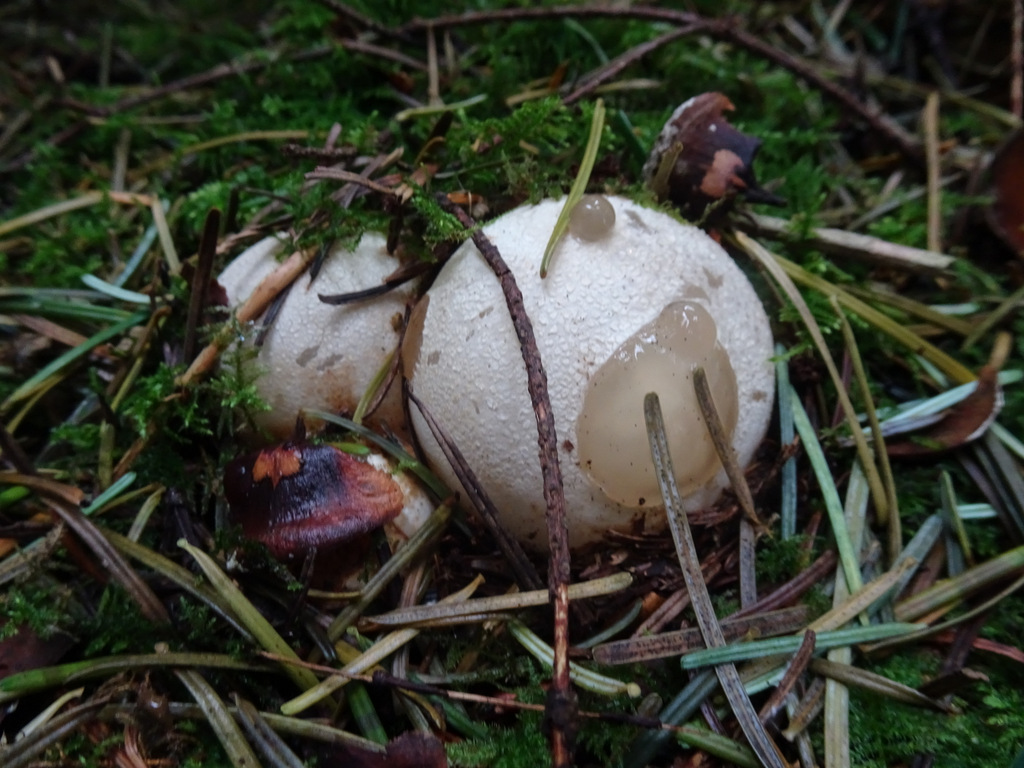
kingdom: Fungi
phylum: Basidiomycota
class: Agaricomycetes
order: Phallales
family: Phallaceae
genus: Phallus
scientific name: Phallus impudicus
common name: almindelig stinksvamp
